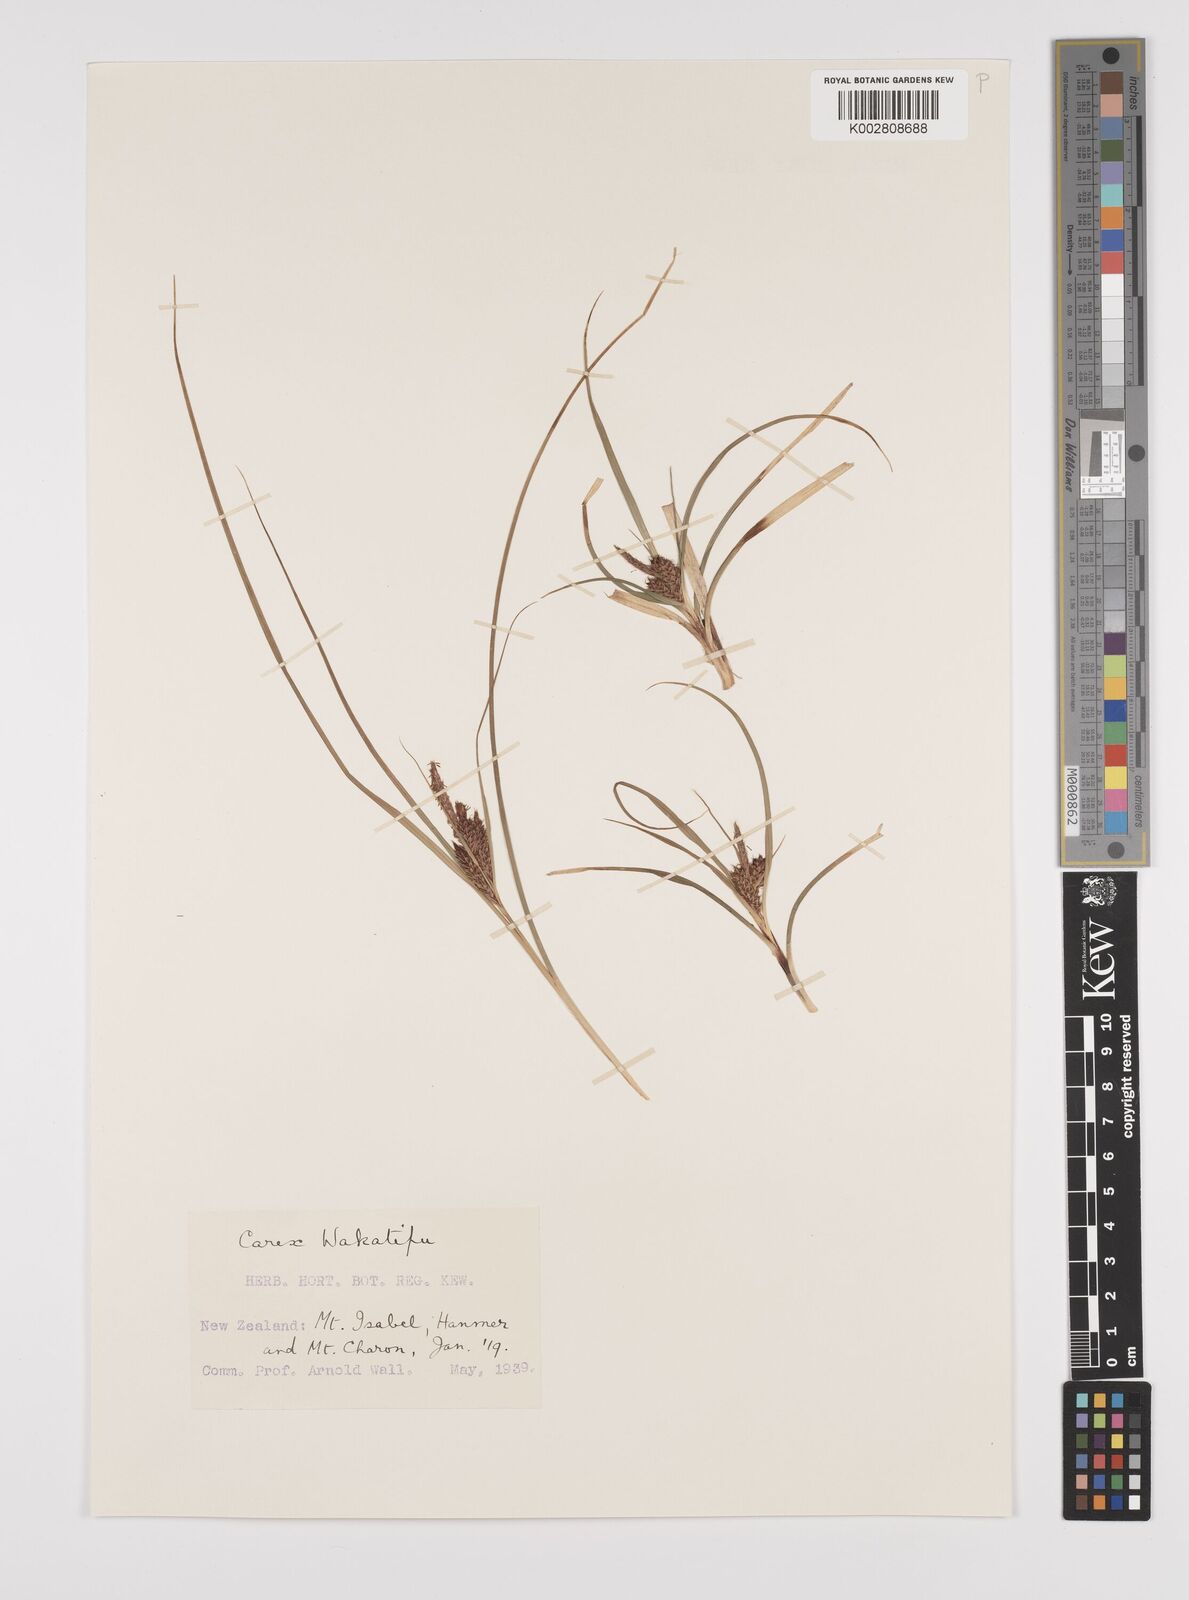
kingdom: Plantae
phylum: Tracheophyta
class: Liliopsida
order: Poales
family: Cyperaceae
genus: Carex
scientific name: Carex wakatipu
